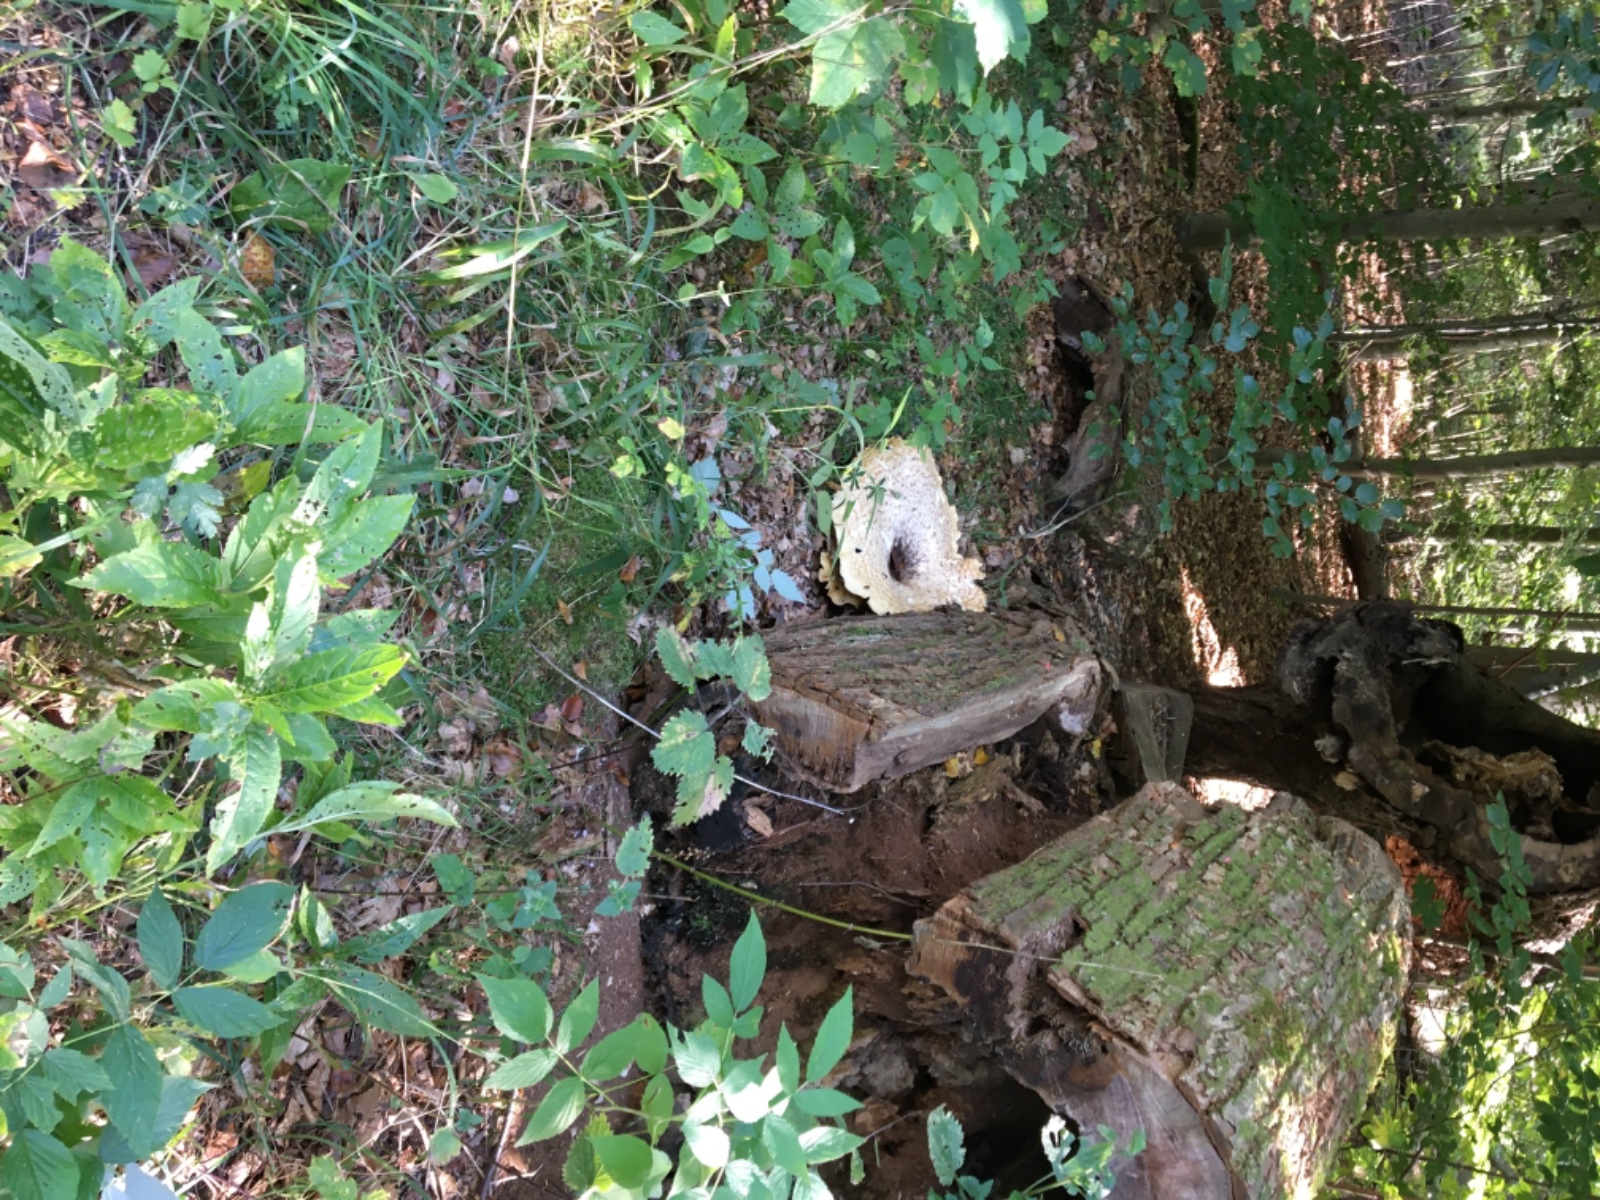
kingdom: Fungi
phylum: Basidiomycota
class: Agaricomycetes
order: Polyporales
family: Polyporaceae
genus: Cerioporus
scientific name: Cerioporus squamosus
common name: skællet stilkporesvamp
